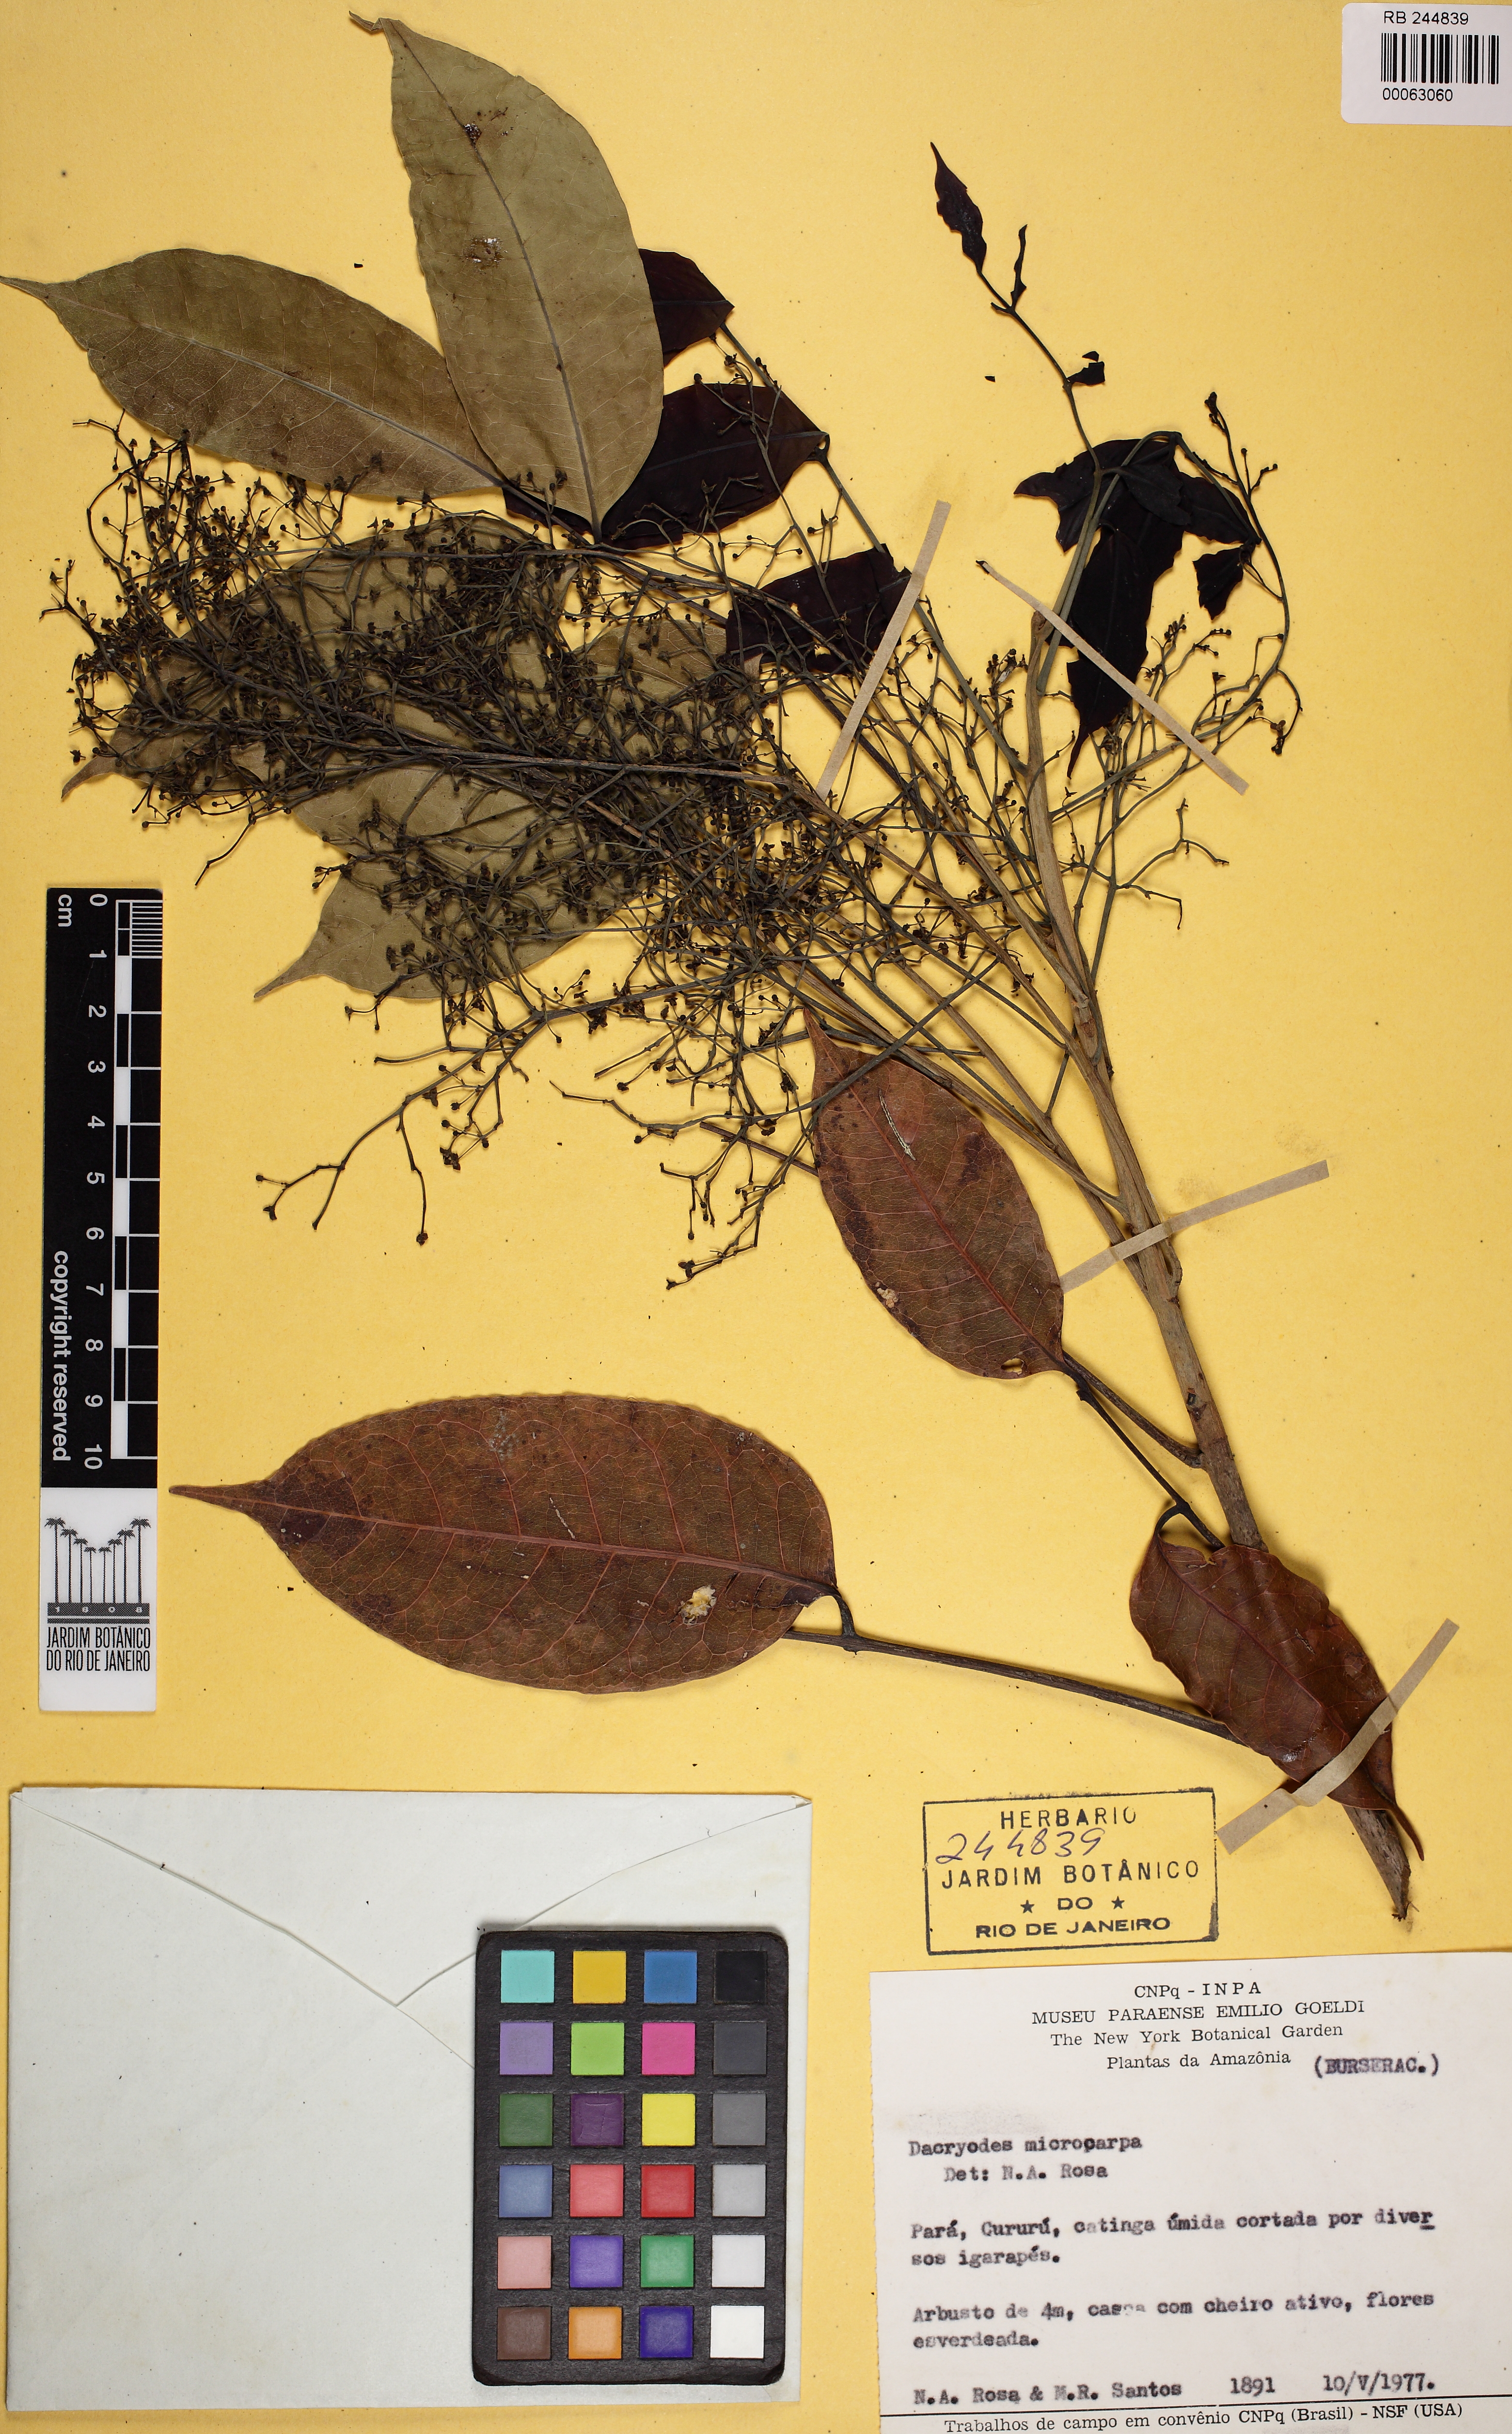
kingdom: Plantae
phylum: Tracheophyta
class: Magnoliopsida
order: Sapindales
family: Burseraceae
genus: Dacryodes
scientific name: Dacryodes microcarpa
